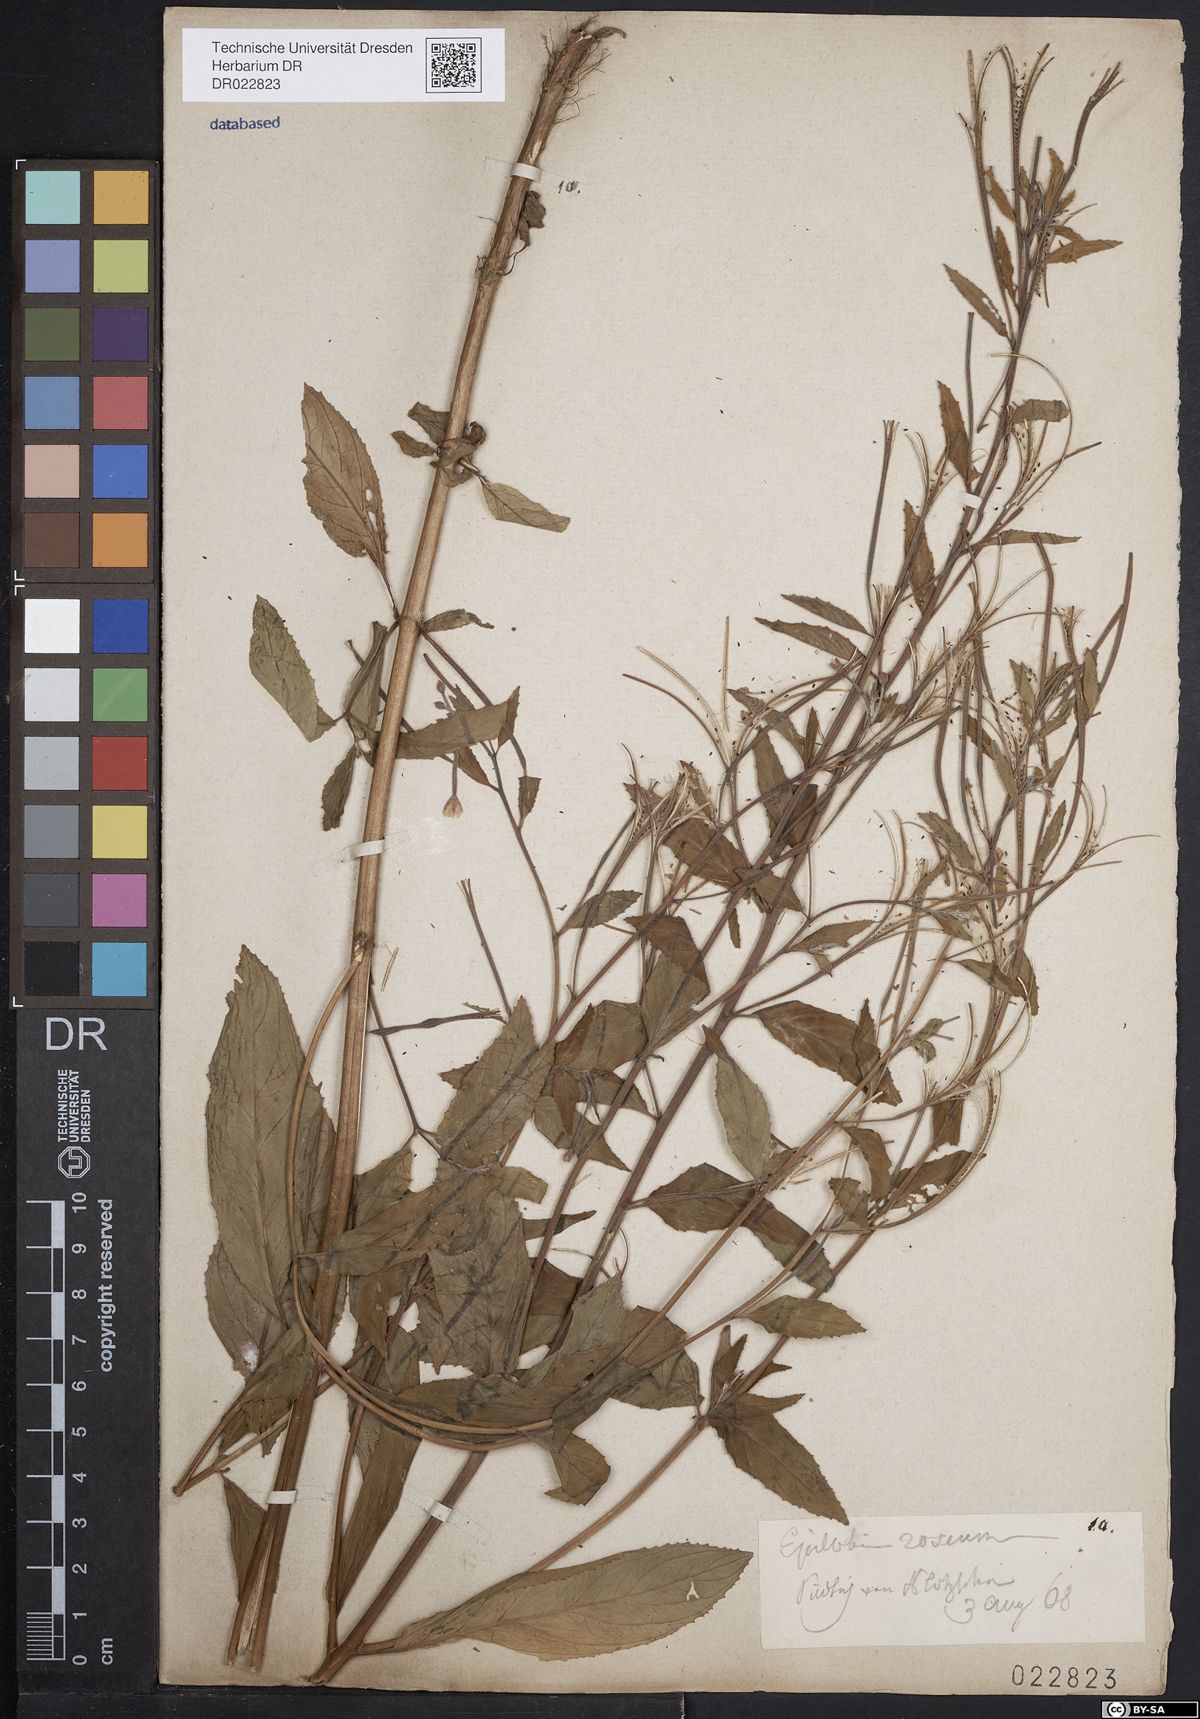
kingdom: Plantae
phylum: Tracheophyta
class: Magnoliopsida
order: Myrtales
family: Onagraceae
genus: Epilobium
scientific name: Epilobium roseum
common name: Pale willowherb
